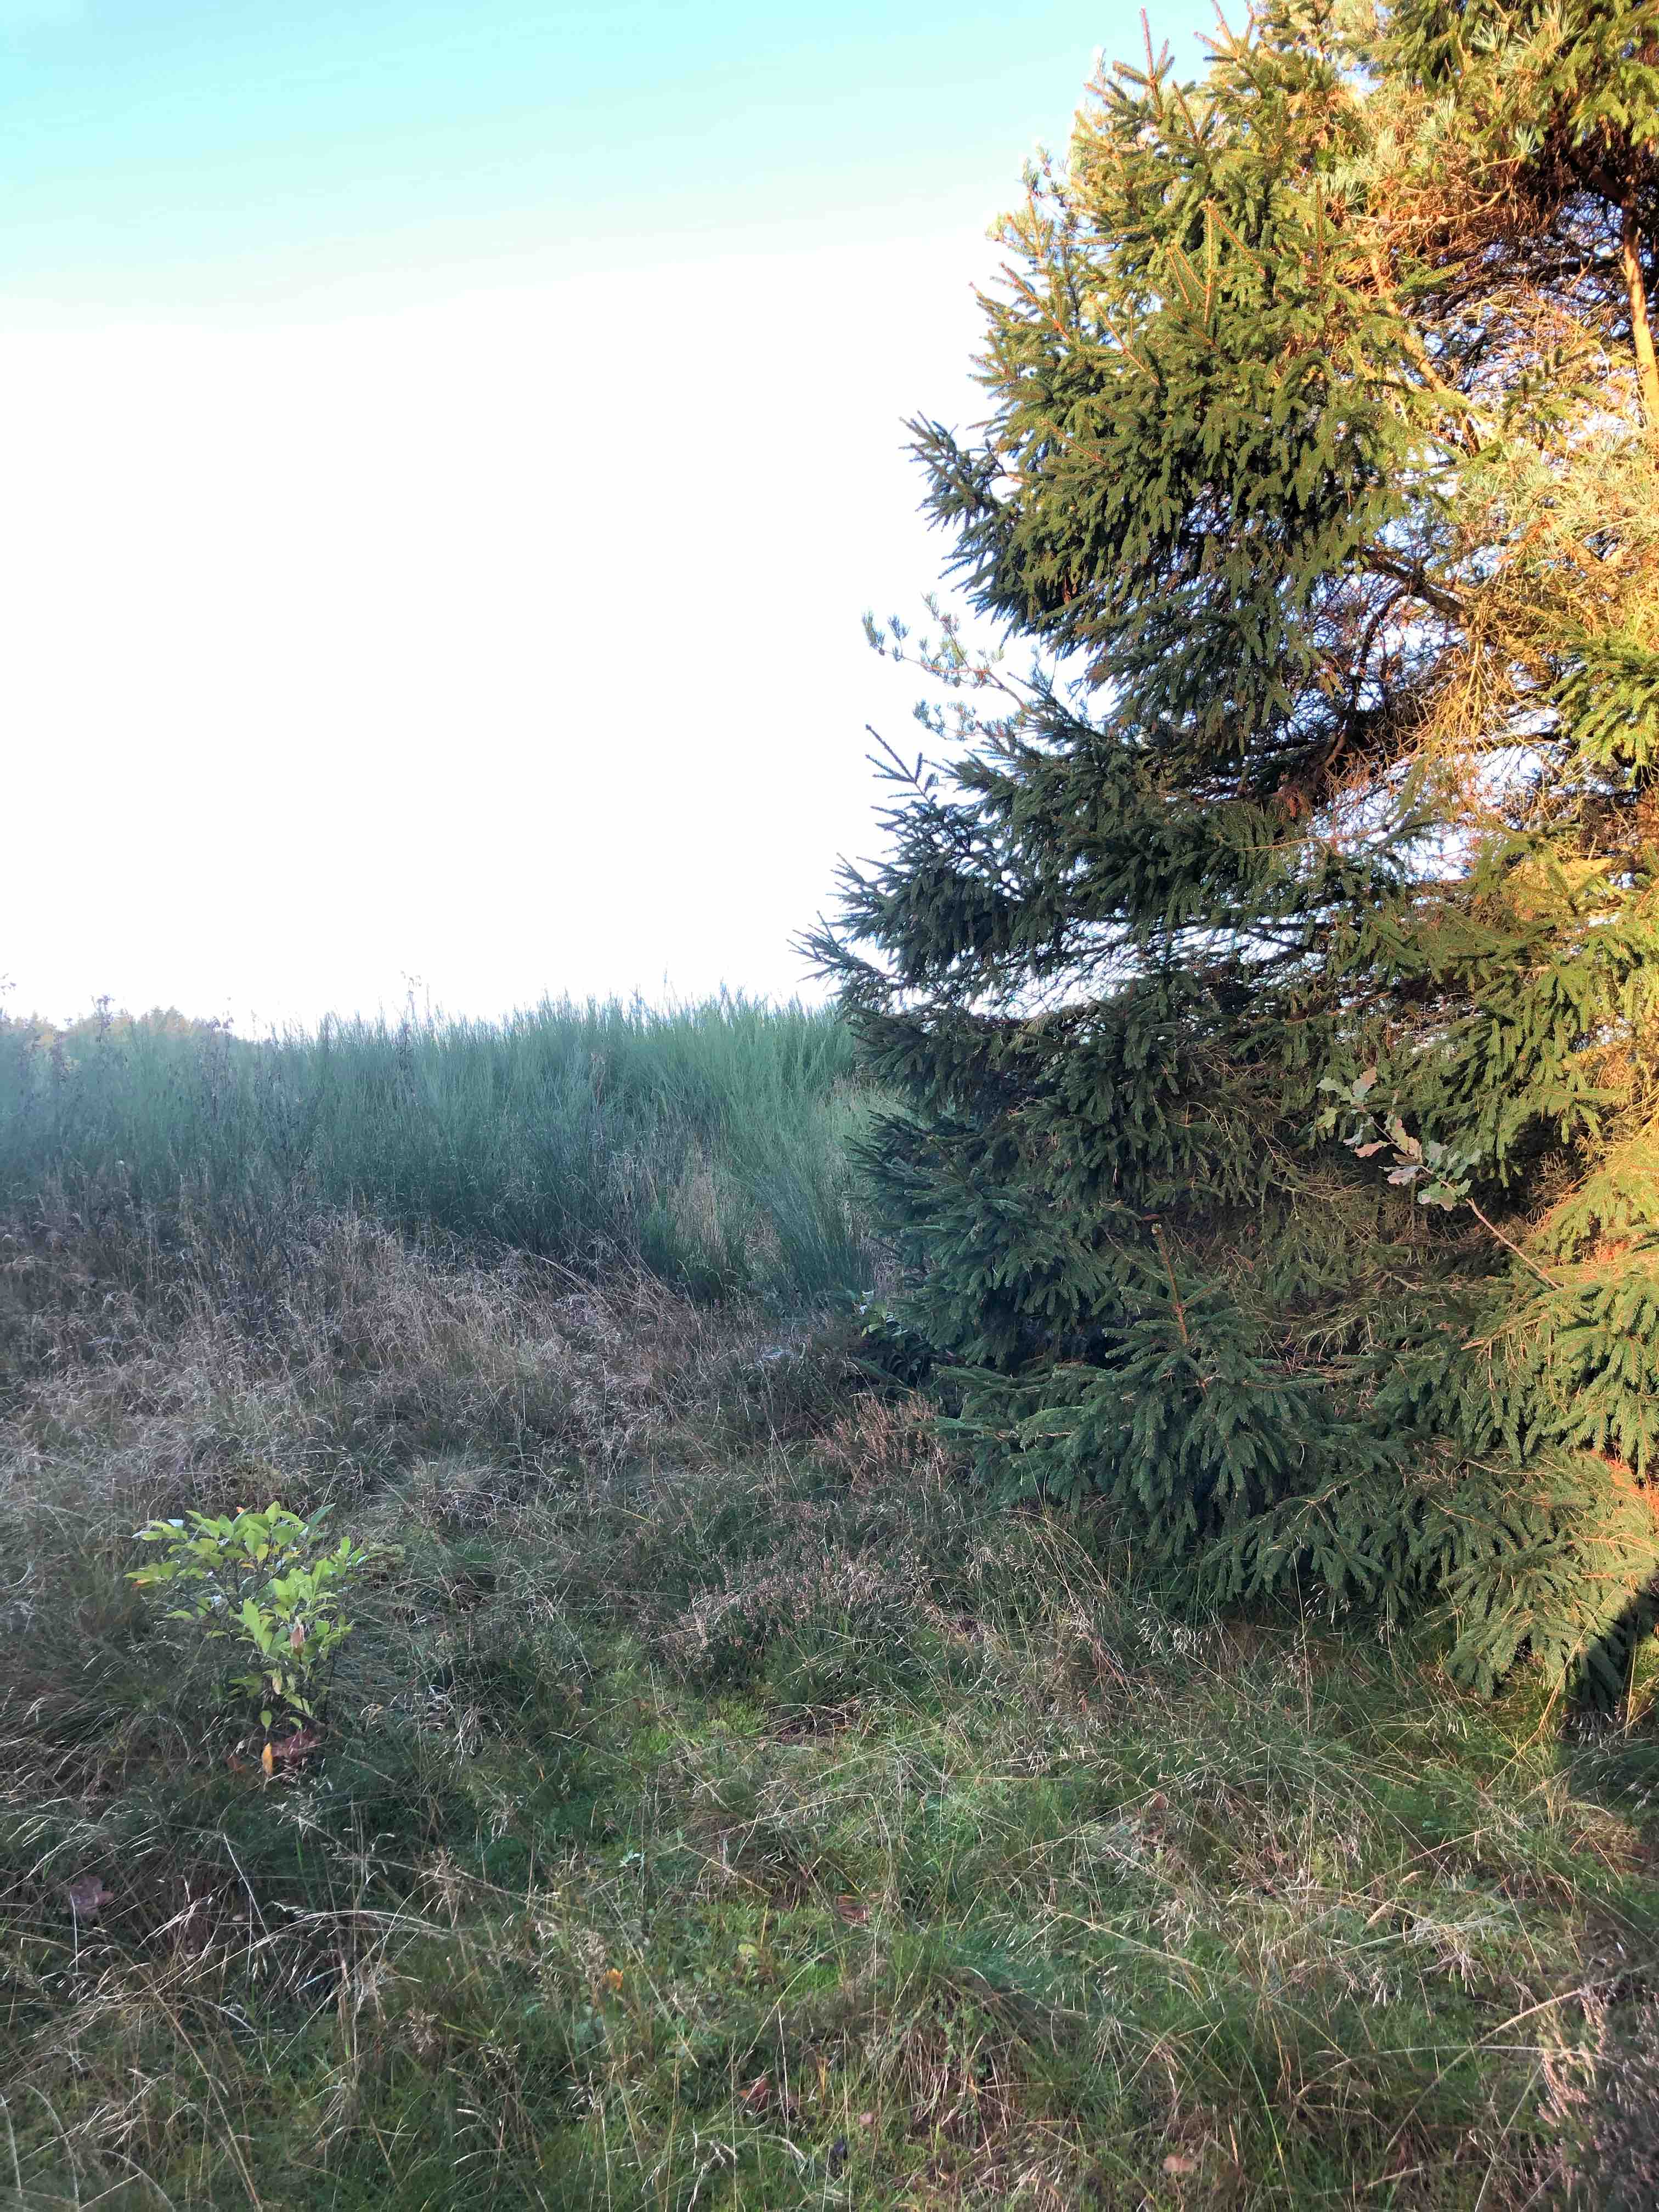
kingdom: Fungi
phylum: Basidiomycota
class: Agaricomycetes
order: Agaricales
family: Hygrophoraceae
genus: Hygrocybe
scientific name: Hygrocybe miniata
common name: mønje-vokshat
